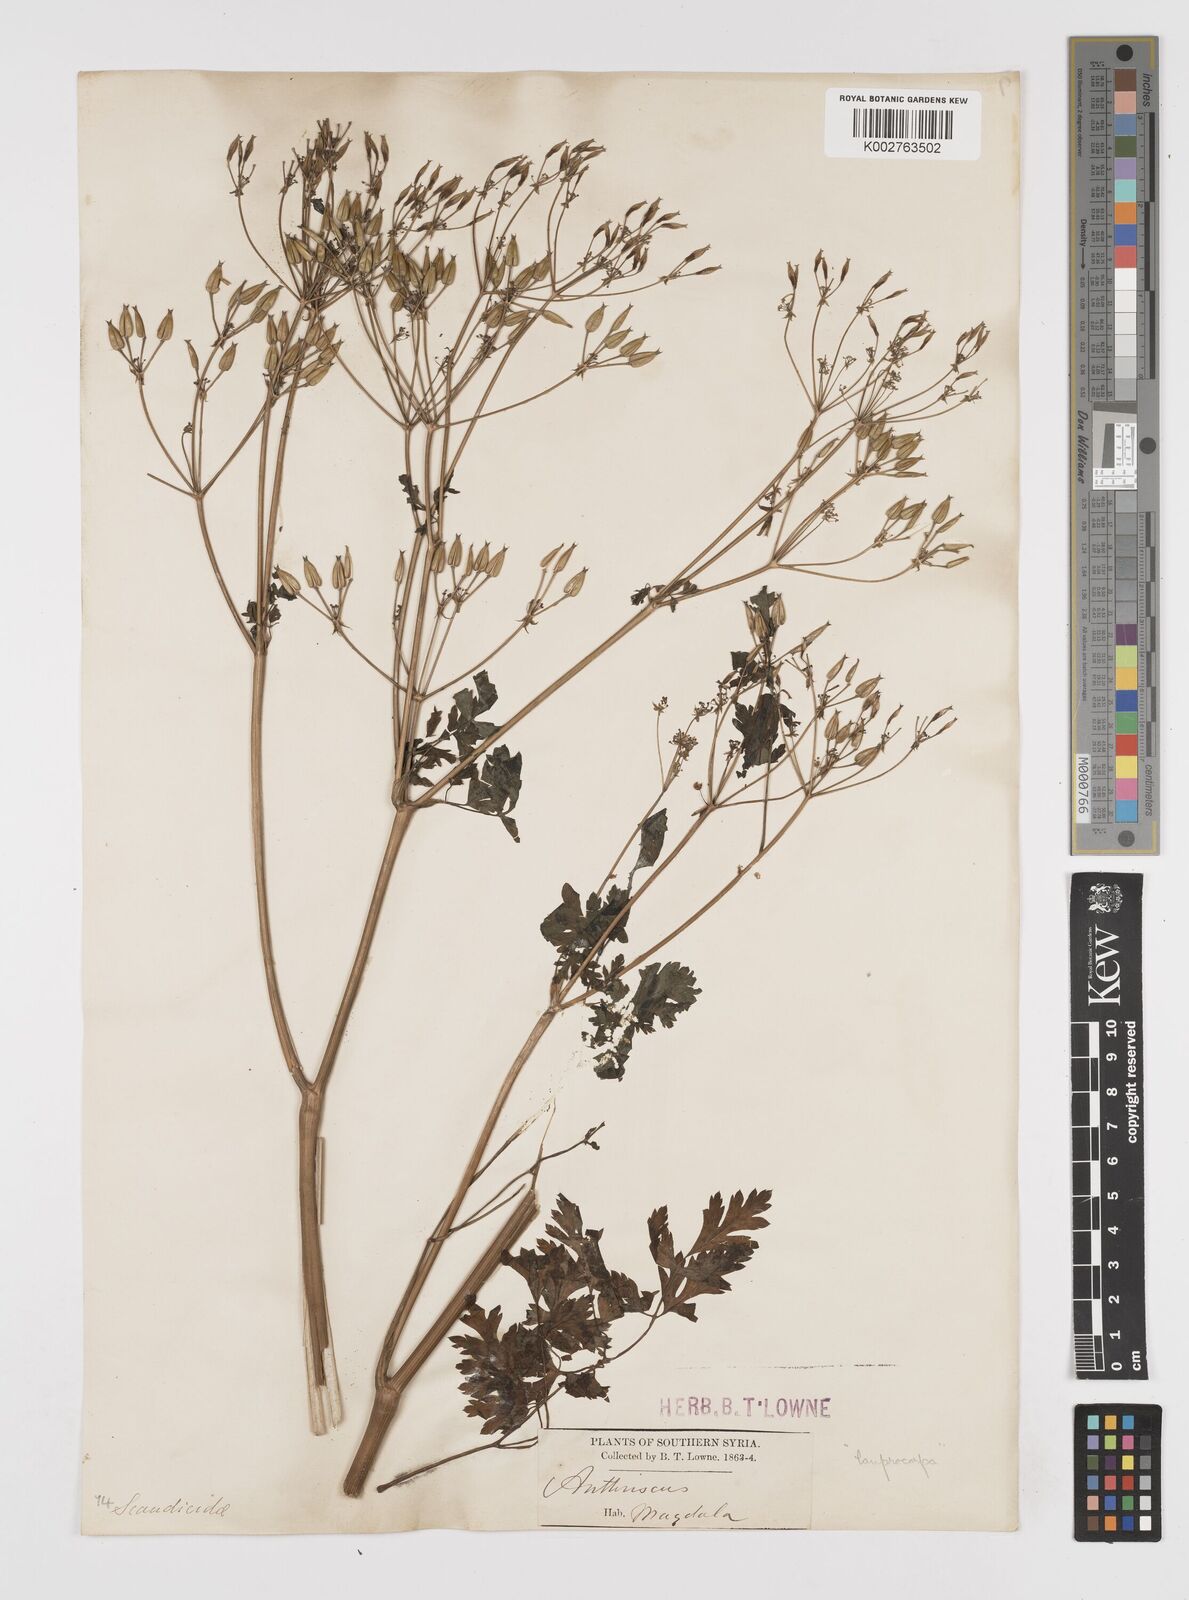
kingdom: Plantae
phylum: Tracheophyta
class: Magnoliopsida
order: Apiales
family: Apiaceae
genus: Anthriscus
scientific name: Anthriscus lamprocarpa
